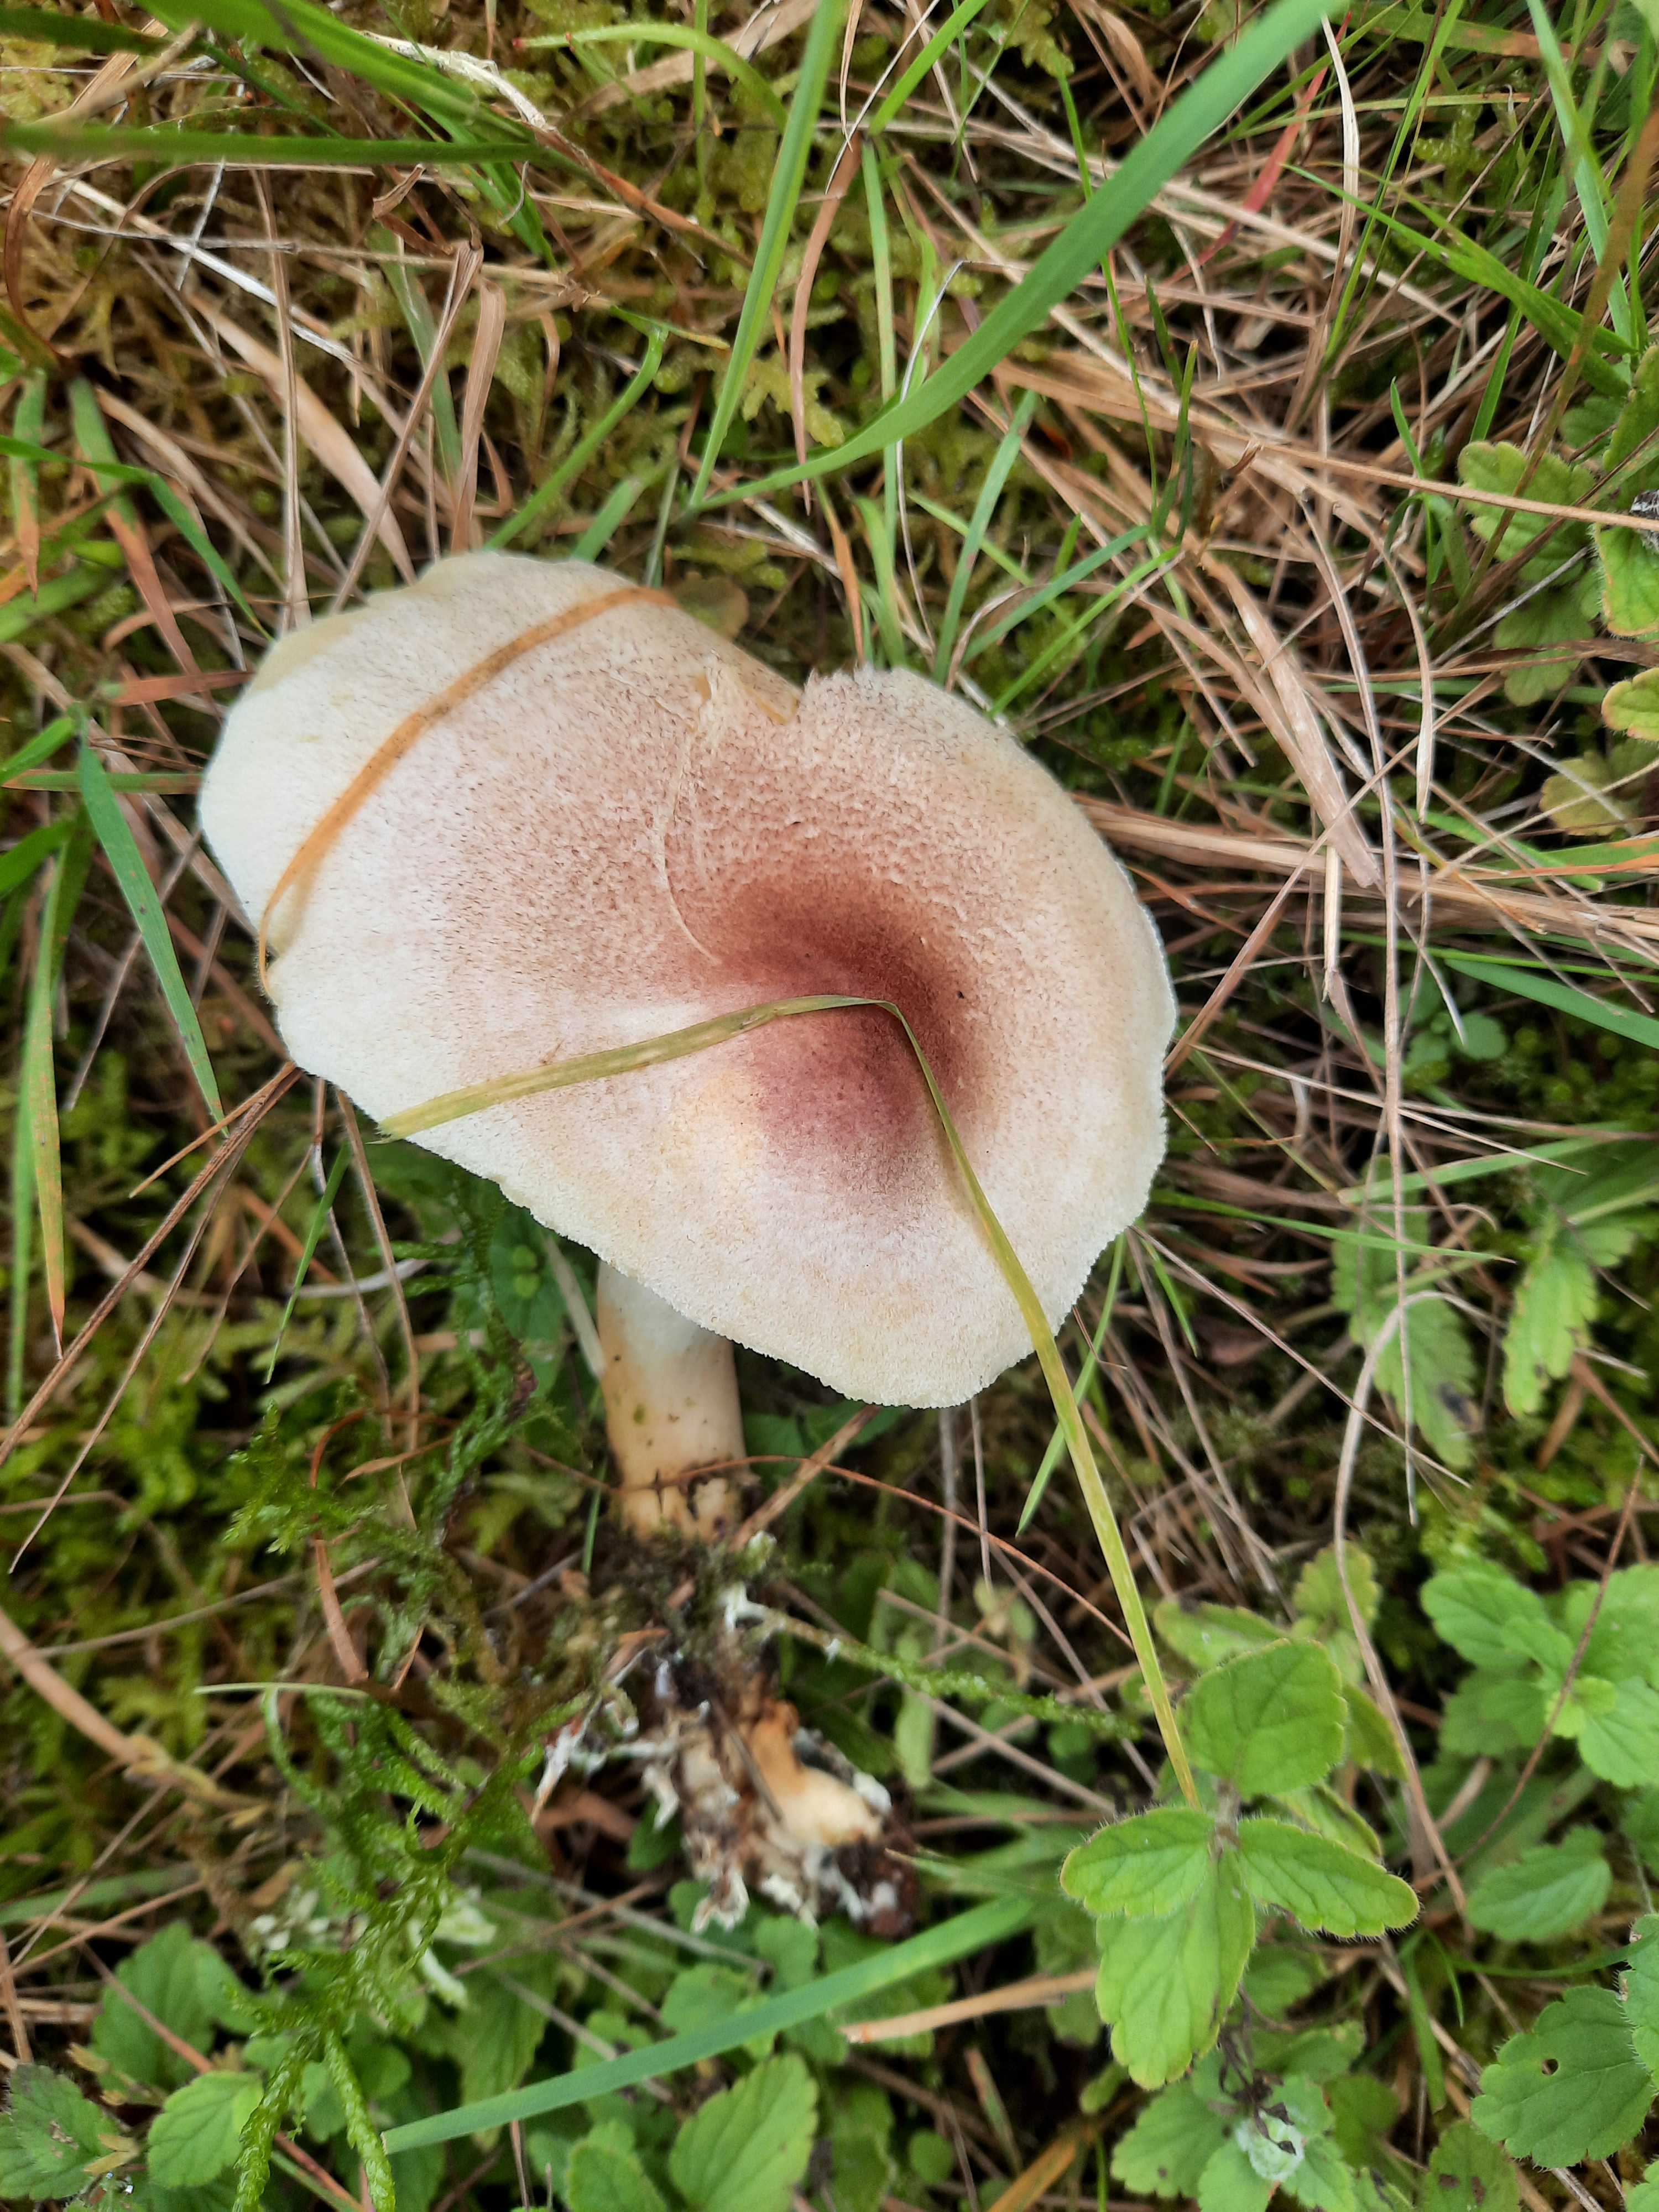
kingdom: Fungi
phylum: Basidiomycota
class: Agaricomycetes
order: Agaricales
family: Tricholomataceae
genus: Tricholomopsis
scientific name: Tricholomopsis rutilans
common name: purpur-væbnerhat
